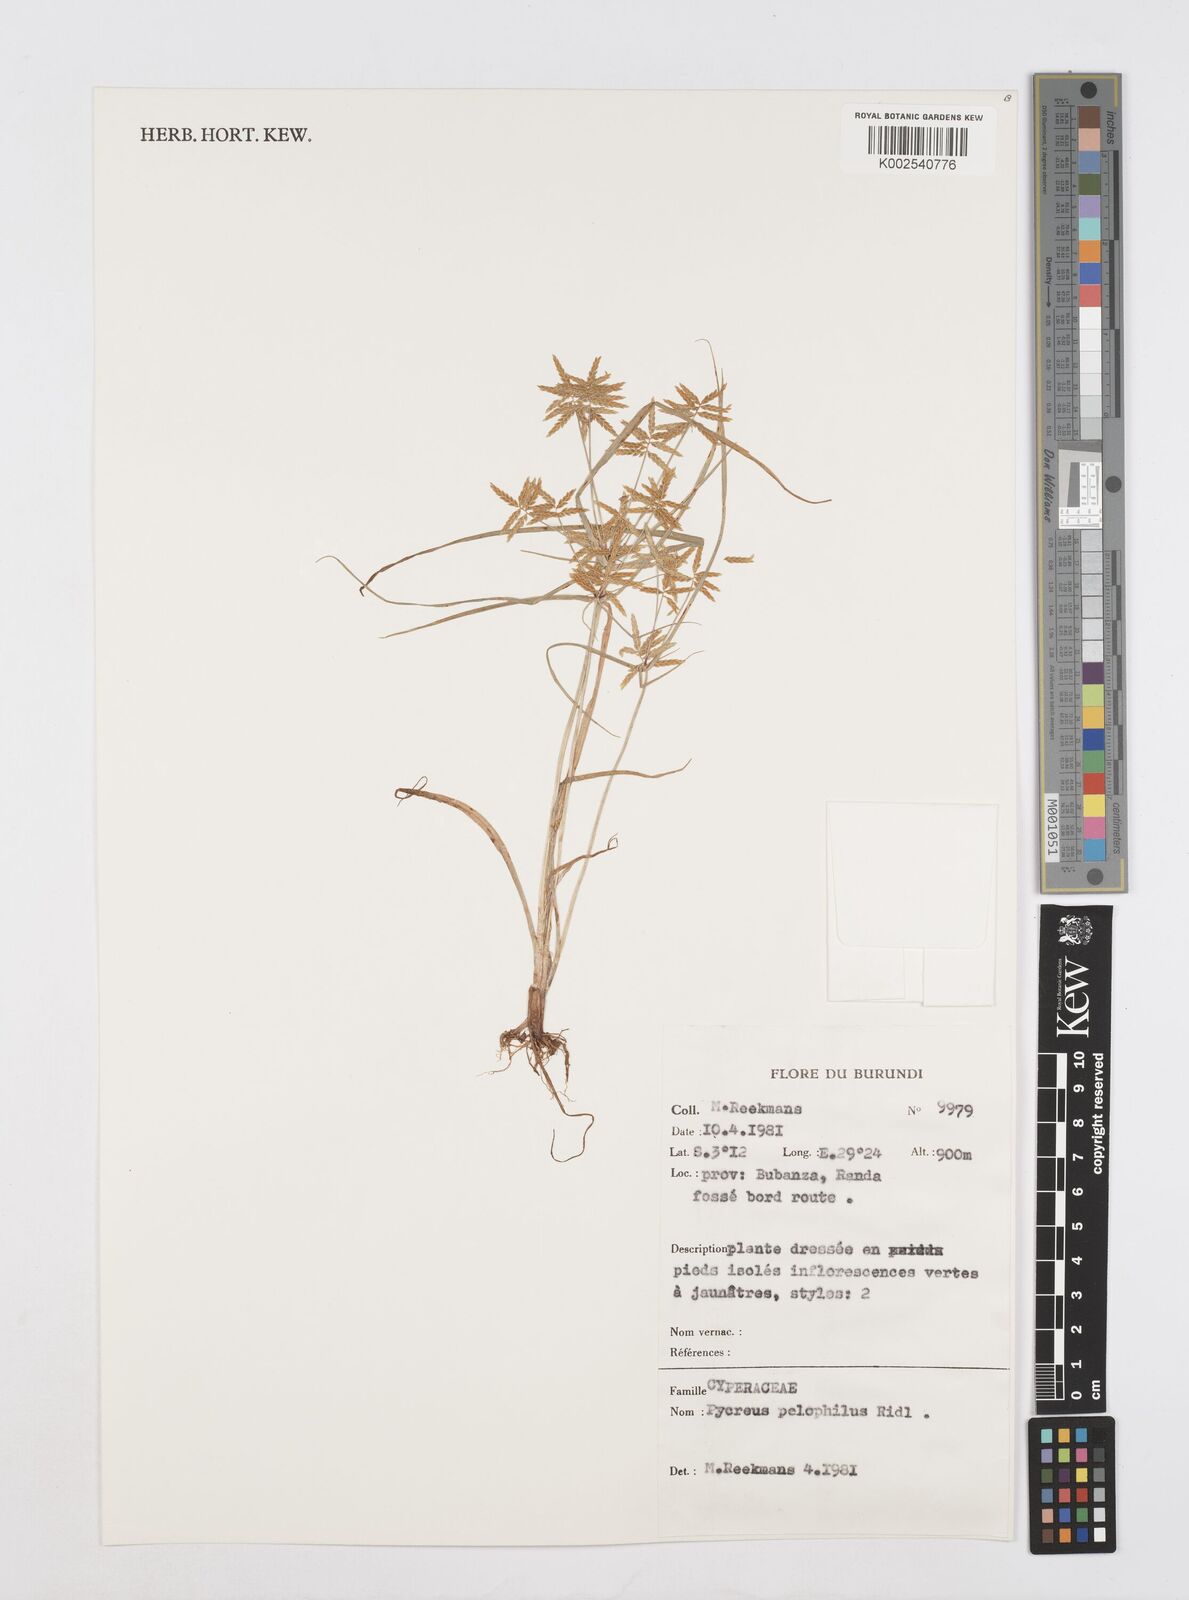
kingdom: Plantae
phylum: Tracheophyta
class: Liliopsida
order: Poales
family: Cyperaceae
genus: Cyperus
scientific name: Cyperus pelophilus
